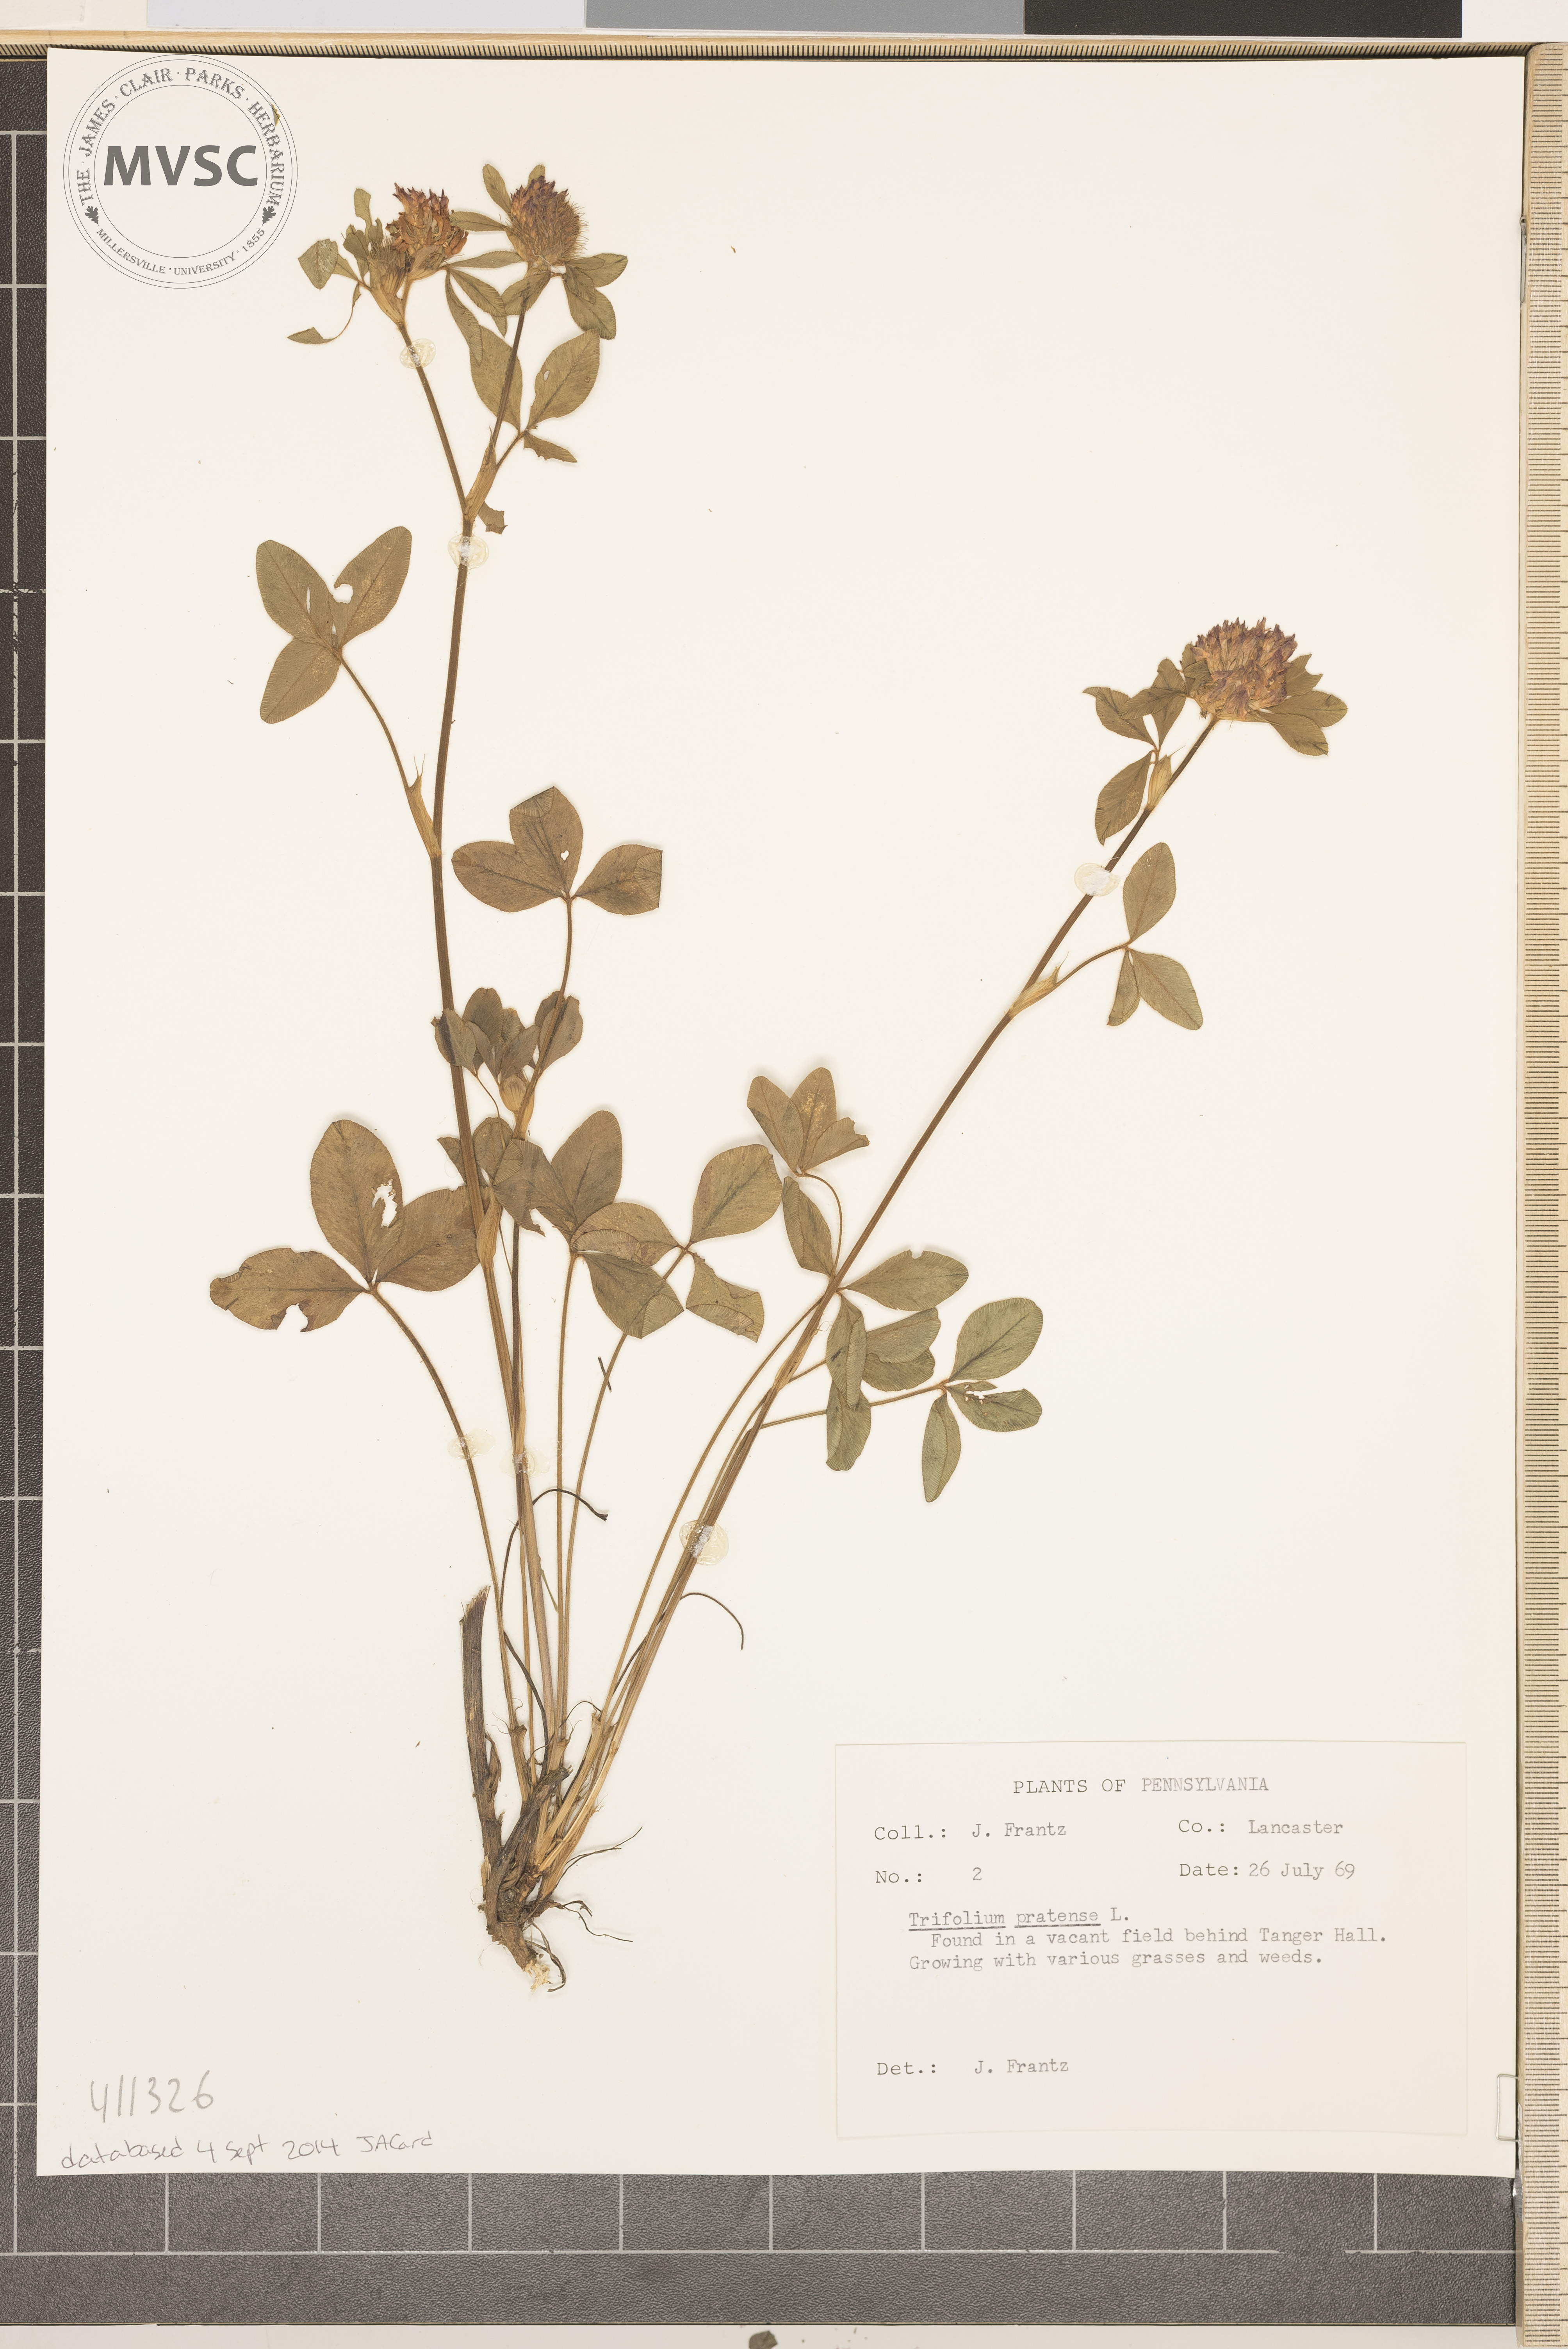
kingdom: Plantae
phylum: Tracheophyta
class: Magnoliopsida
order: Fabales
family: Fabaceae
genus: Trifolium
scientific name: Trifolium pratense
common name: Red clover
